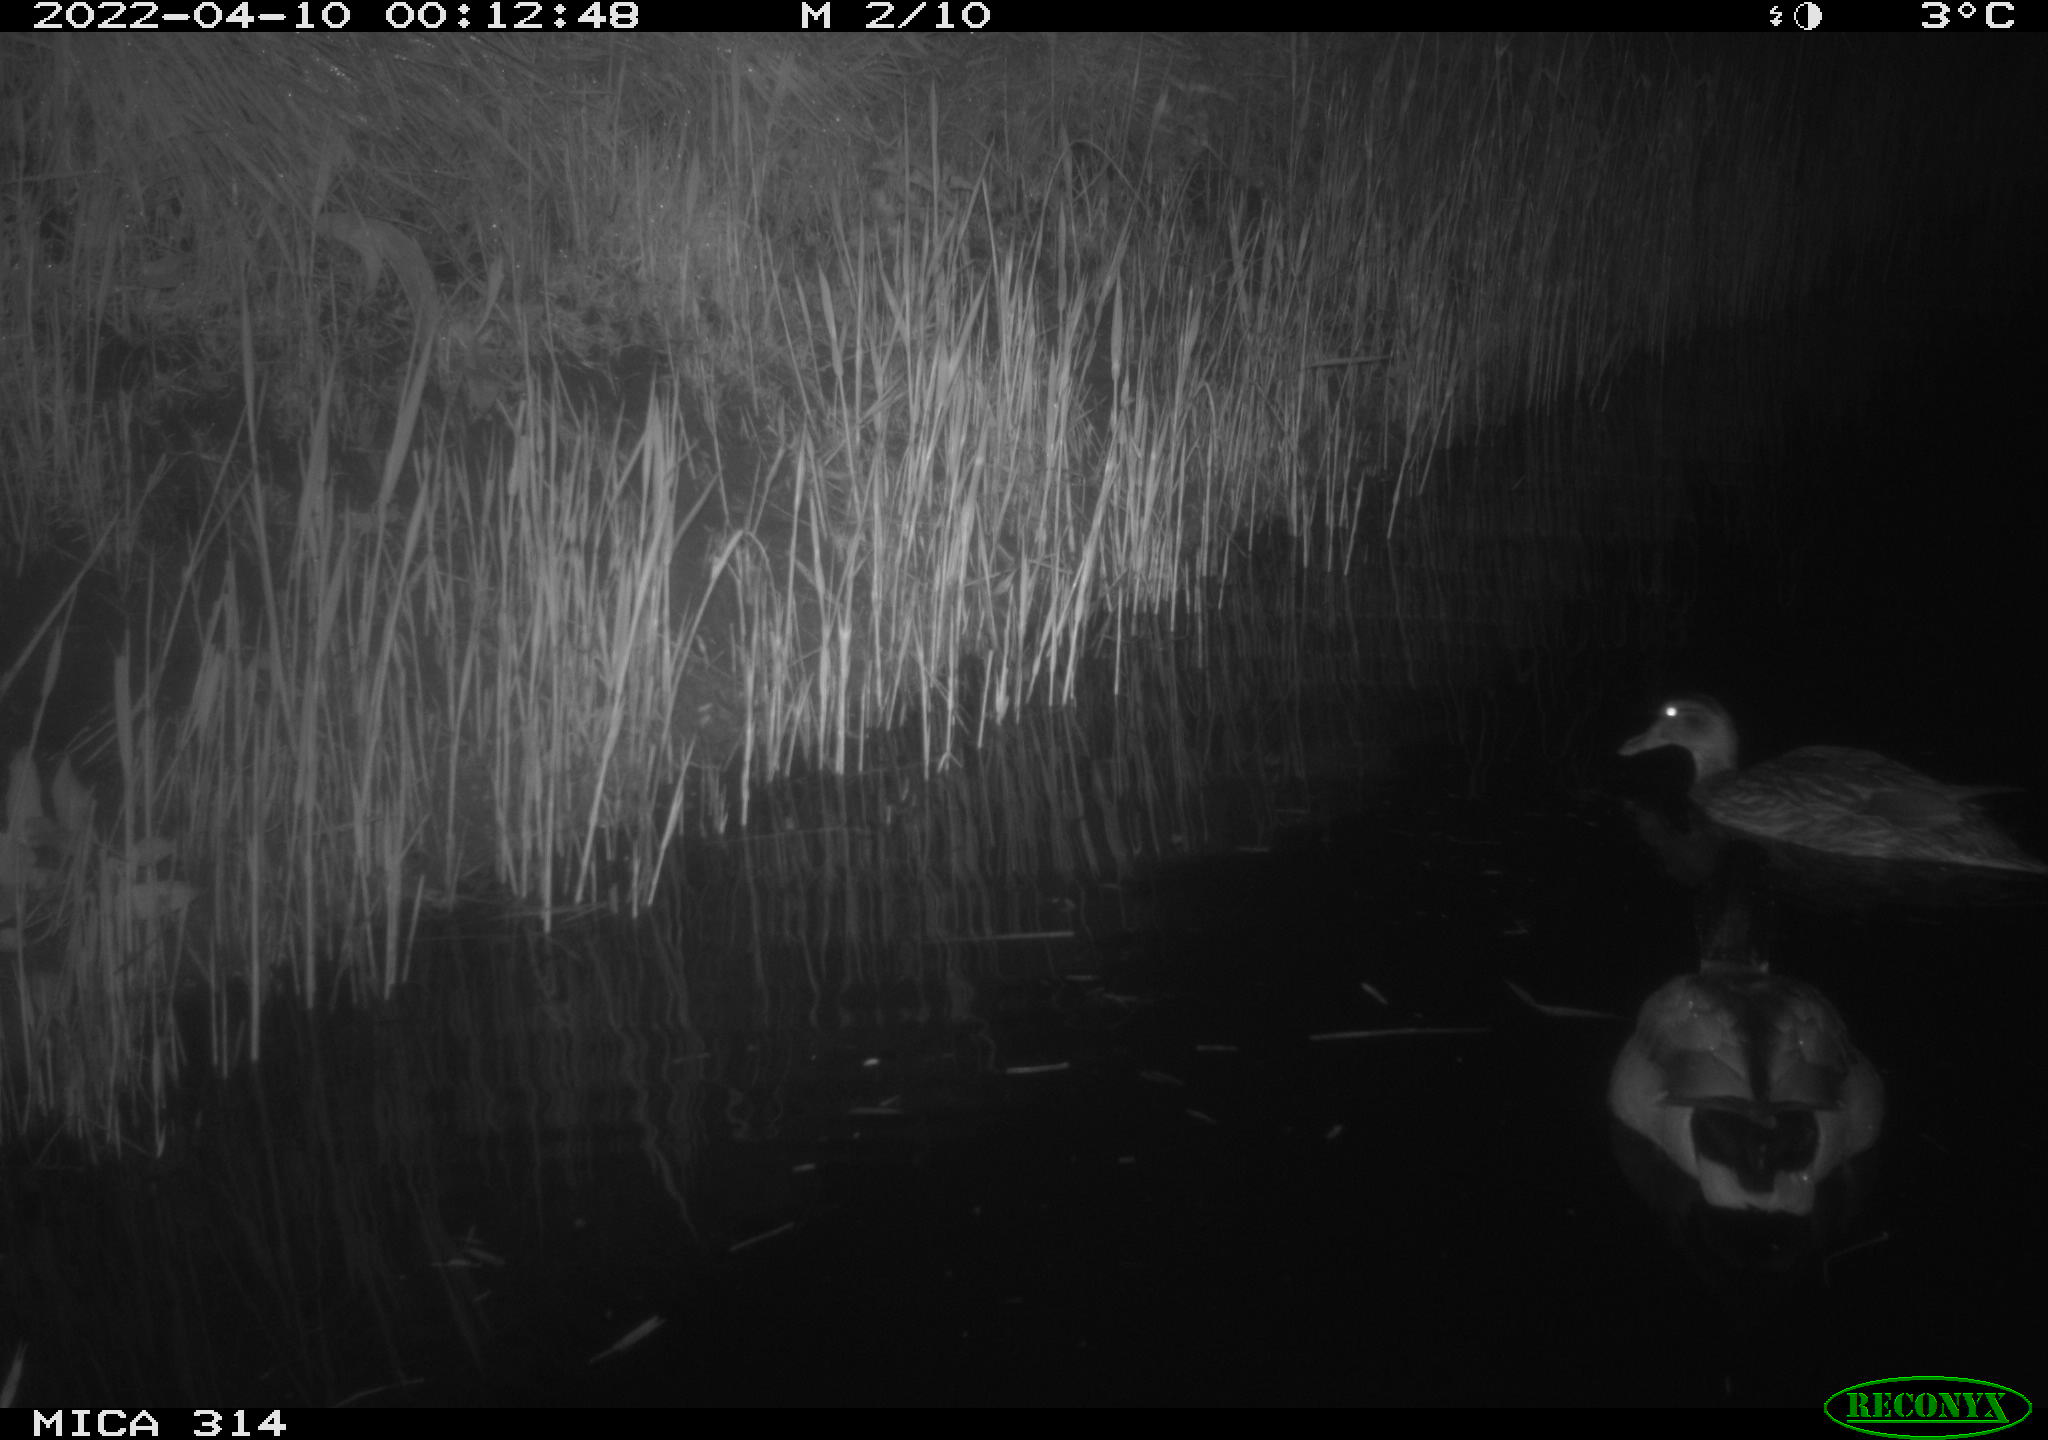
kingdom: Animalia
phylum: Chordata
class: Aves
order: Anseriformes
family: Anatidae
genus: Anas
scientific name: Anas platyrhynchos
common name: Mallard
